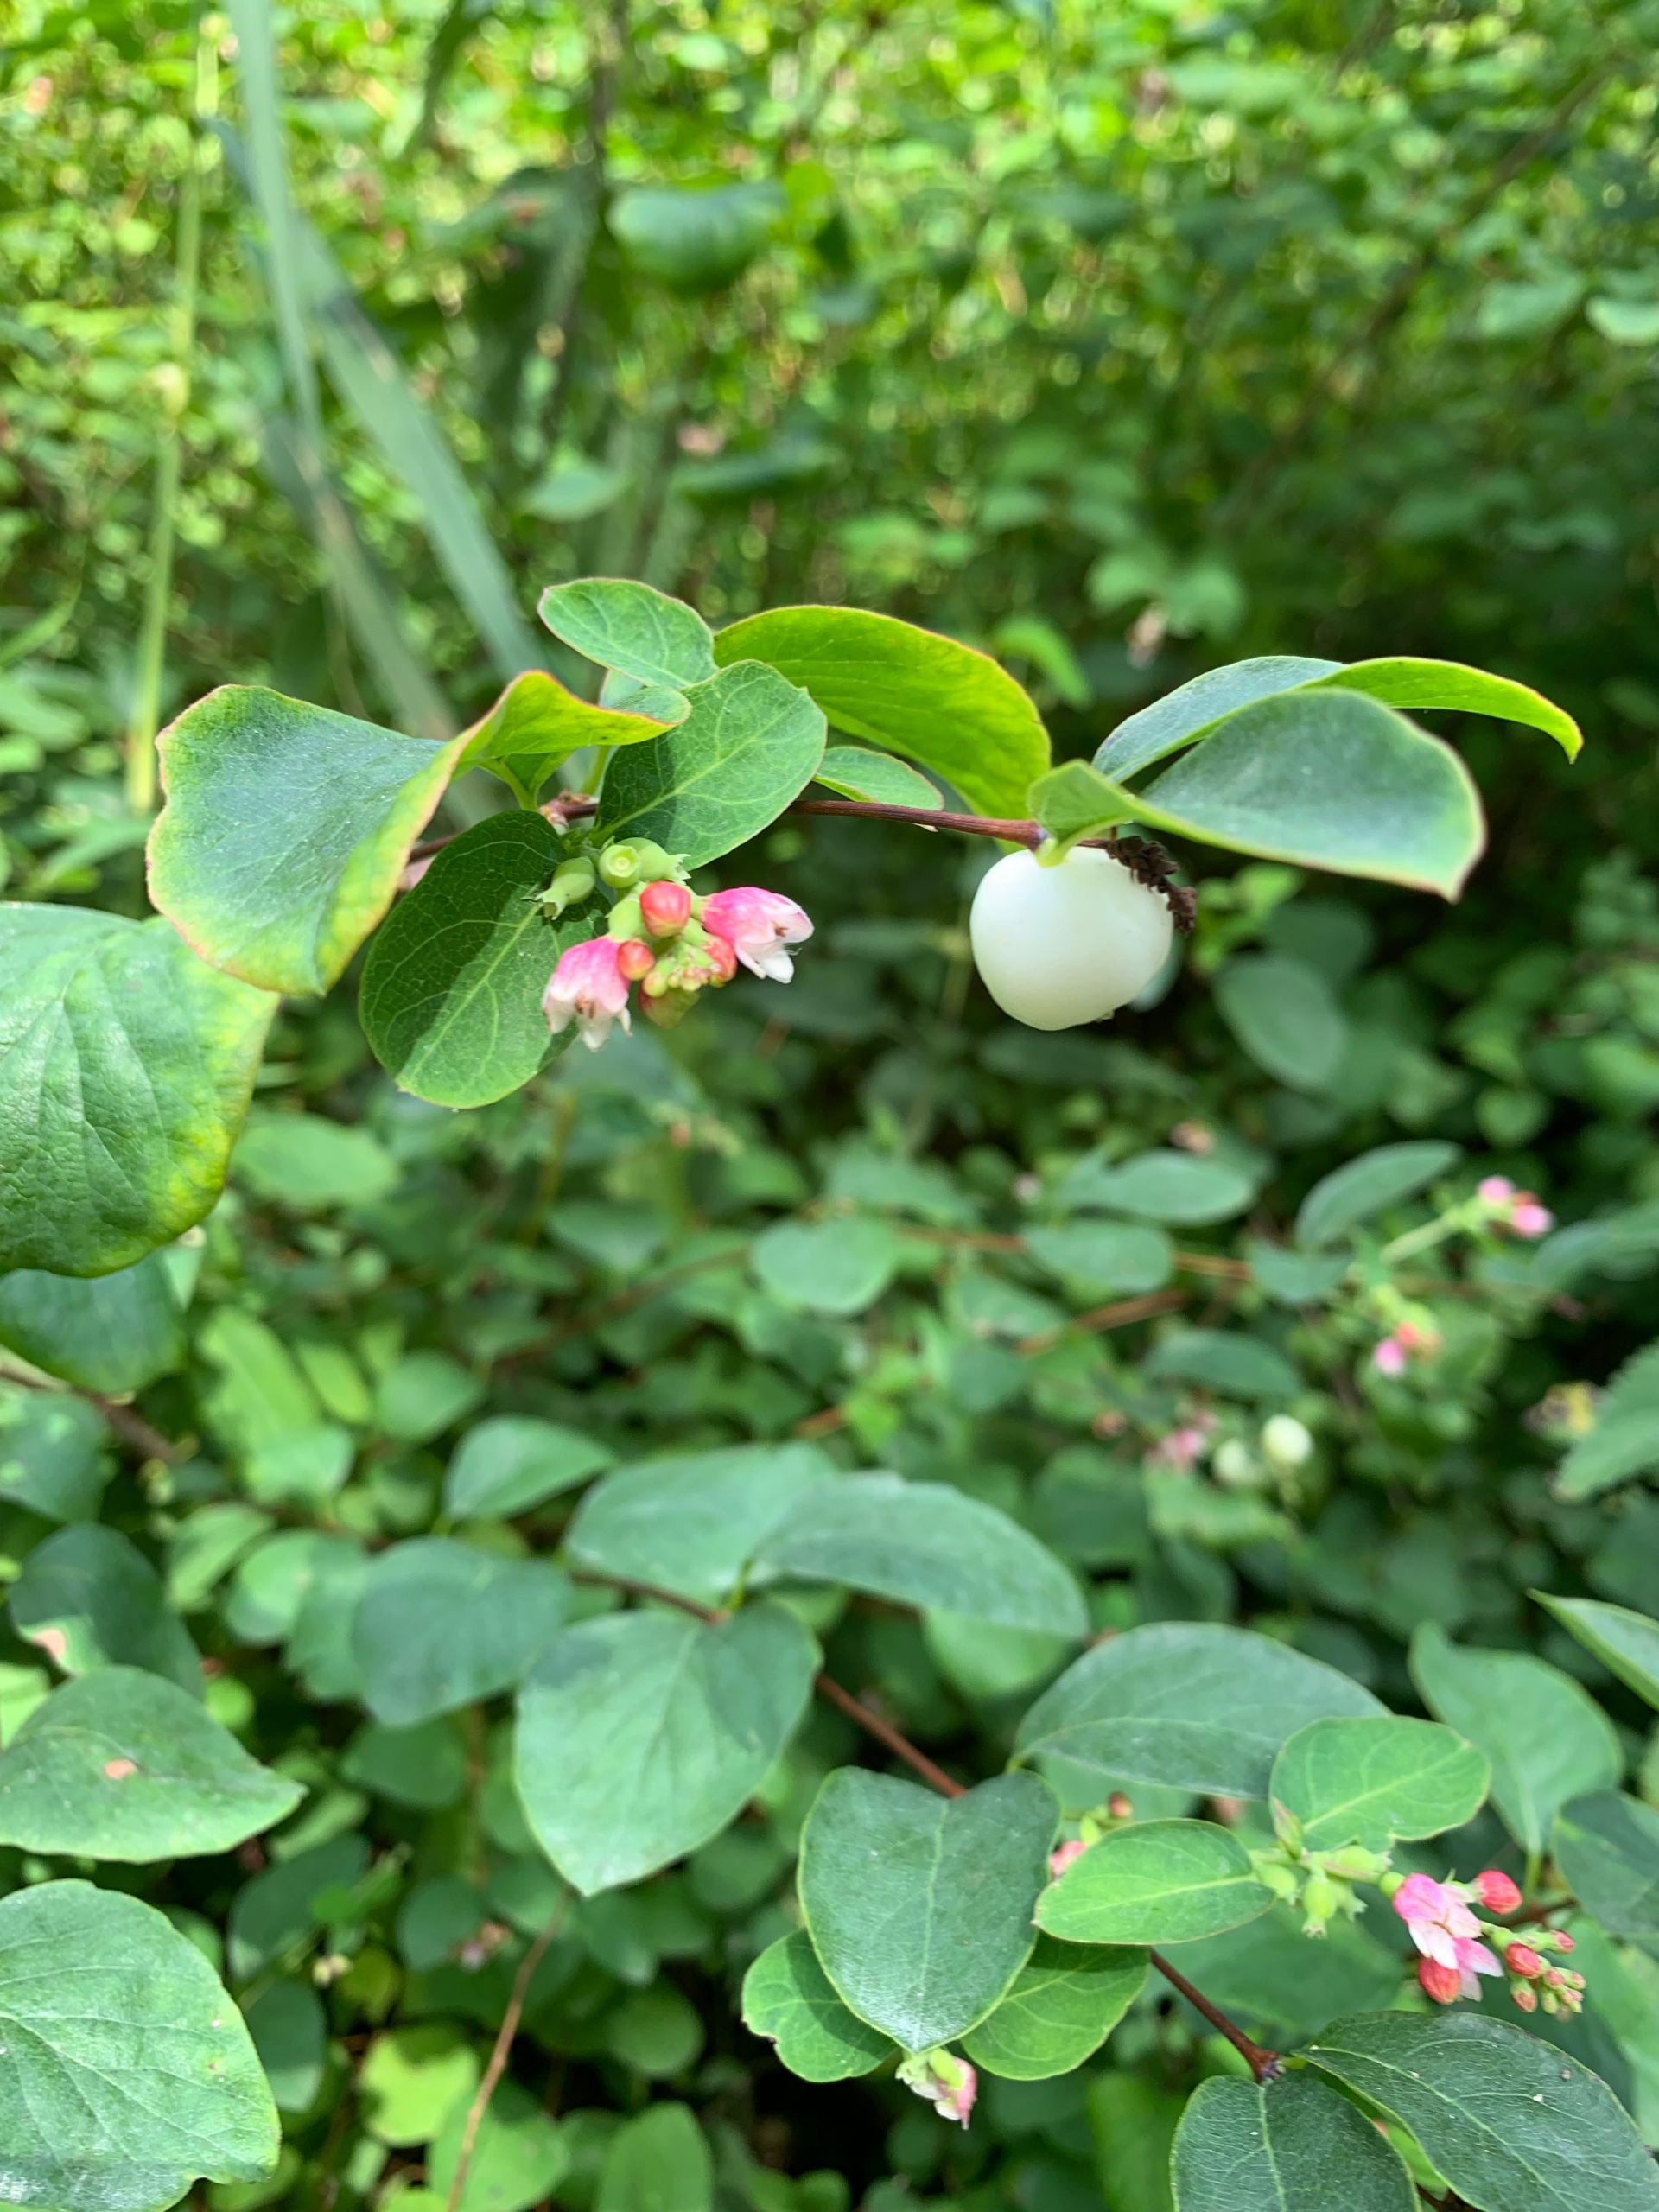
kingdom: Plantae
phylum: Tracheophyta
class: Magnoliopsida
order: Dipsacales
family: Caprifoliaceae
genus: Symphoricarpos
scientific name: Symphoricarpos albus
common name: Almindelig snebær
